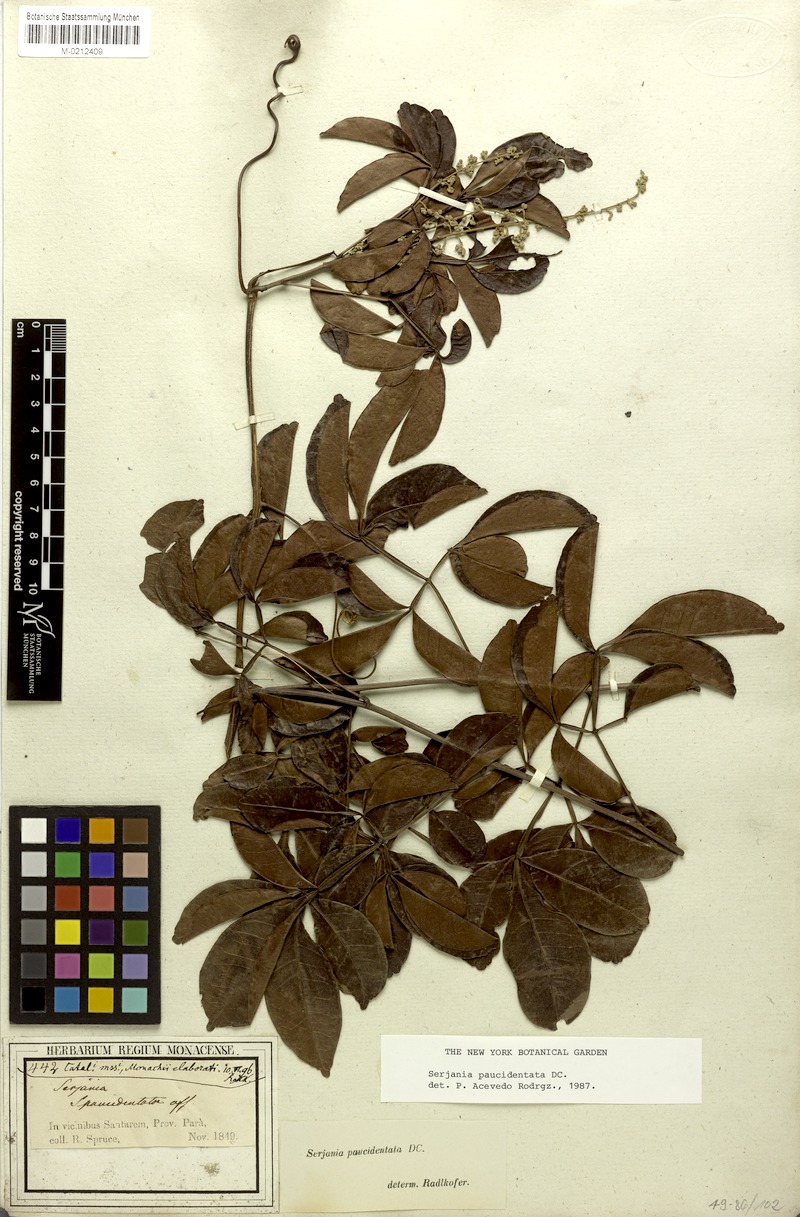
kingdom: Plantae
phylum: Tracheophyta
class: Magnoliopsida
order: Sapindales
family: Sapindaceae
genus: Serjania
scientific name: Serjania paucidentata
